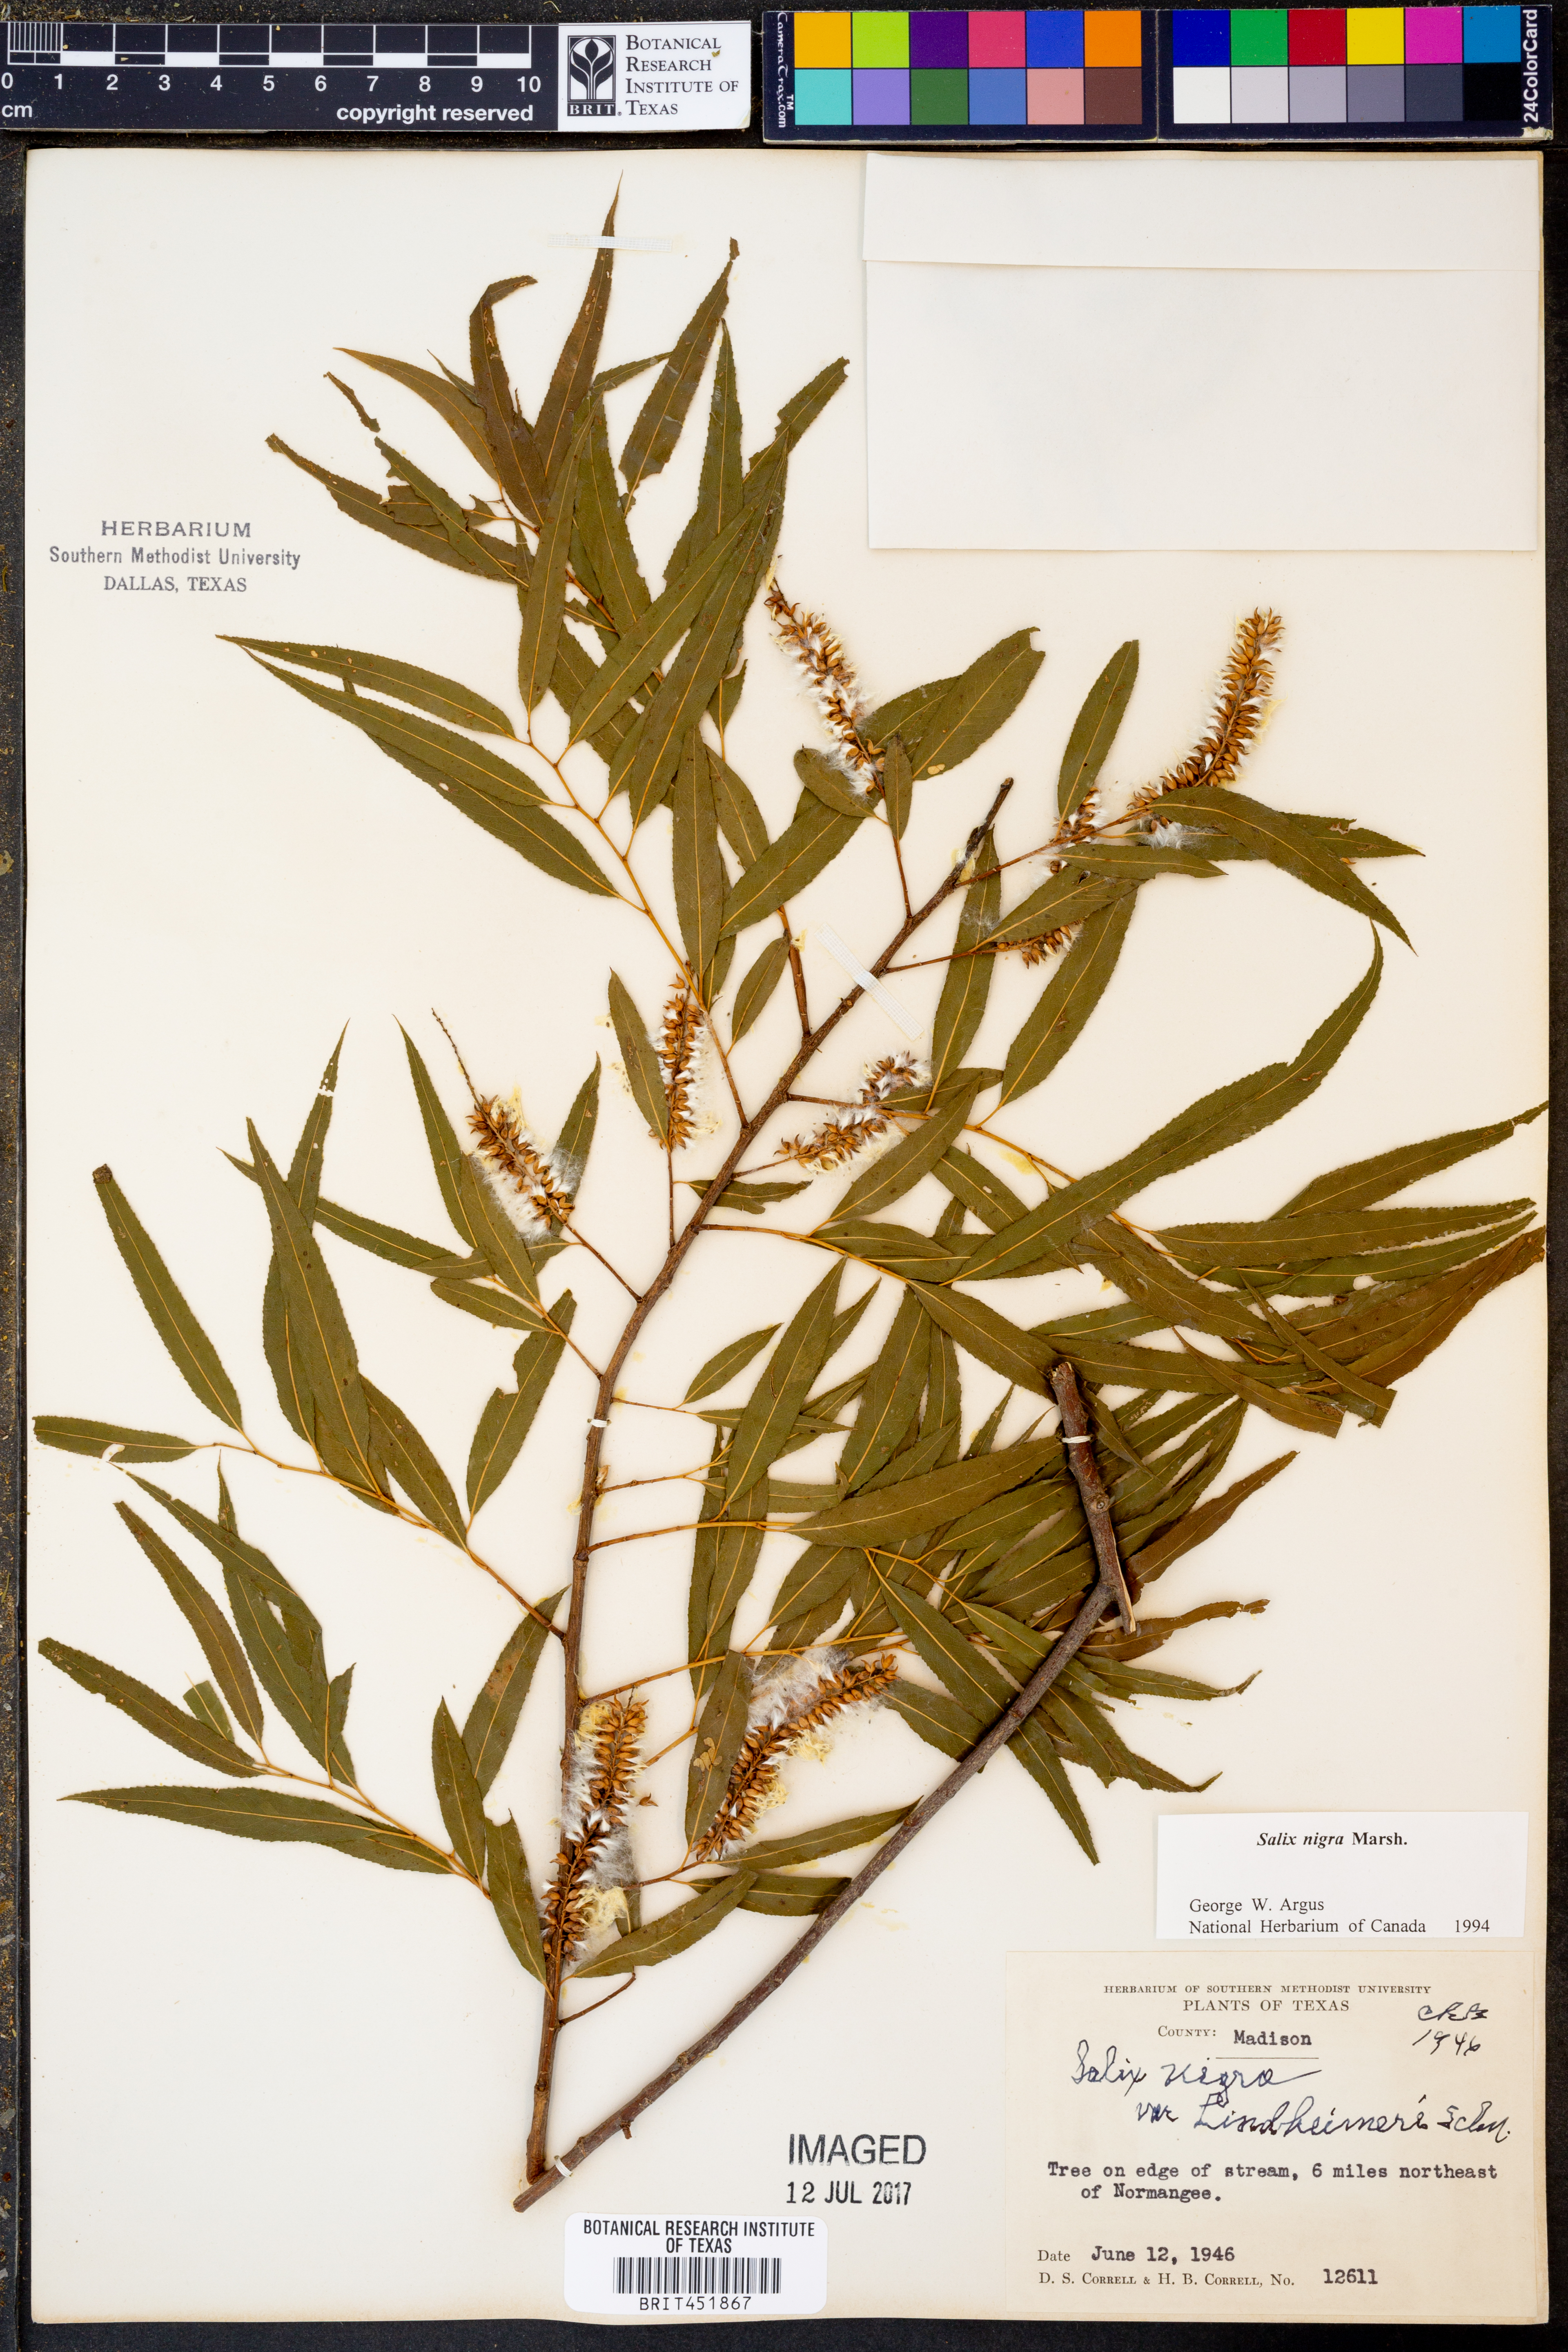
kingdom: Plantae
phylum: Tracheophyta
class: Magnoliopsida
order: Malpighiales
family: Salicaceae
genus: Salix
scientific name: Salix nigra
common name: Black willow
